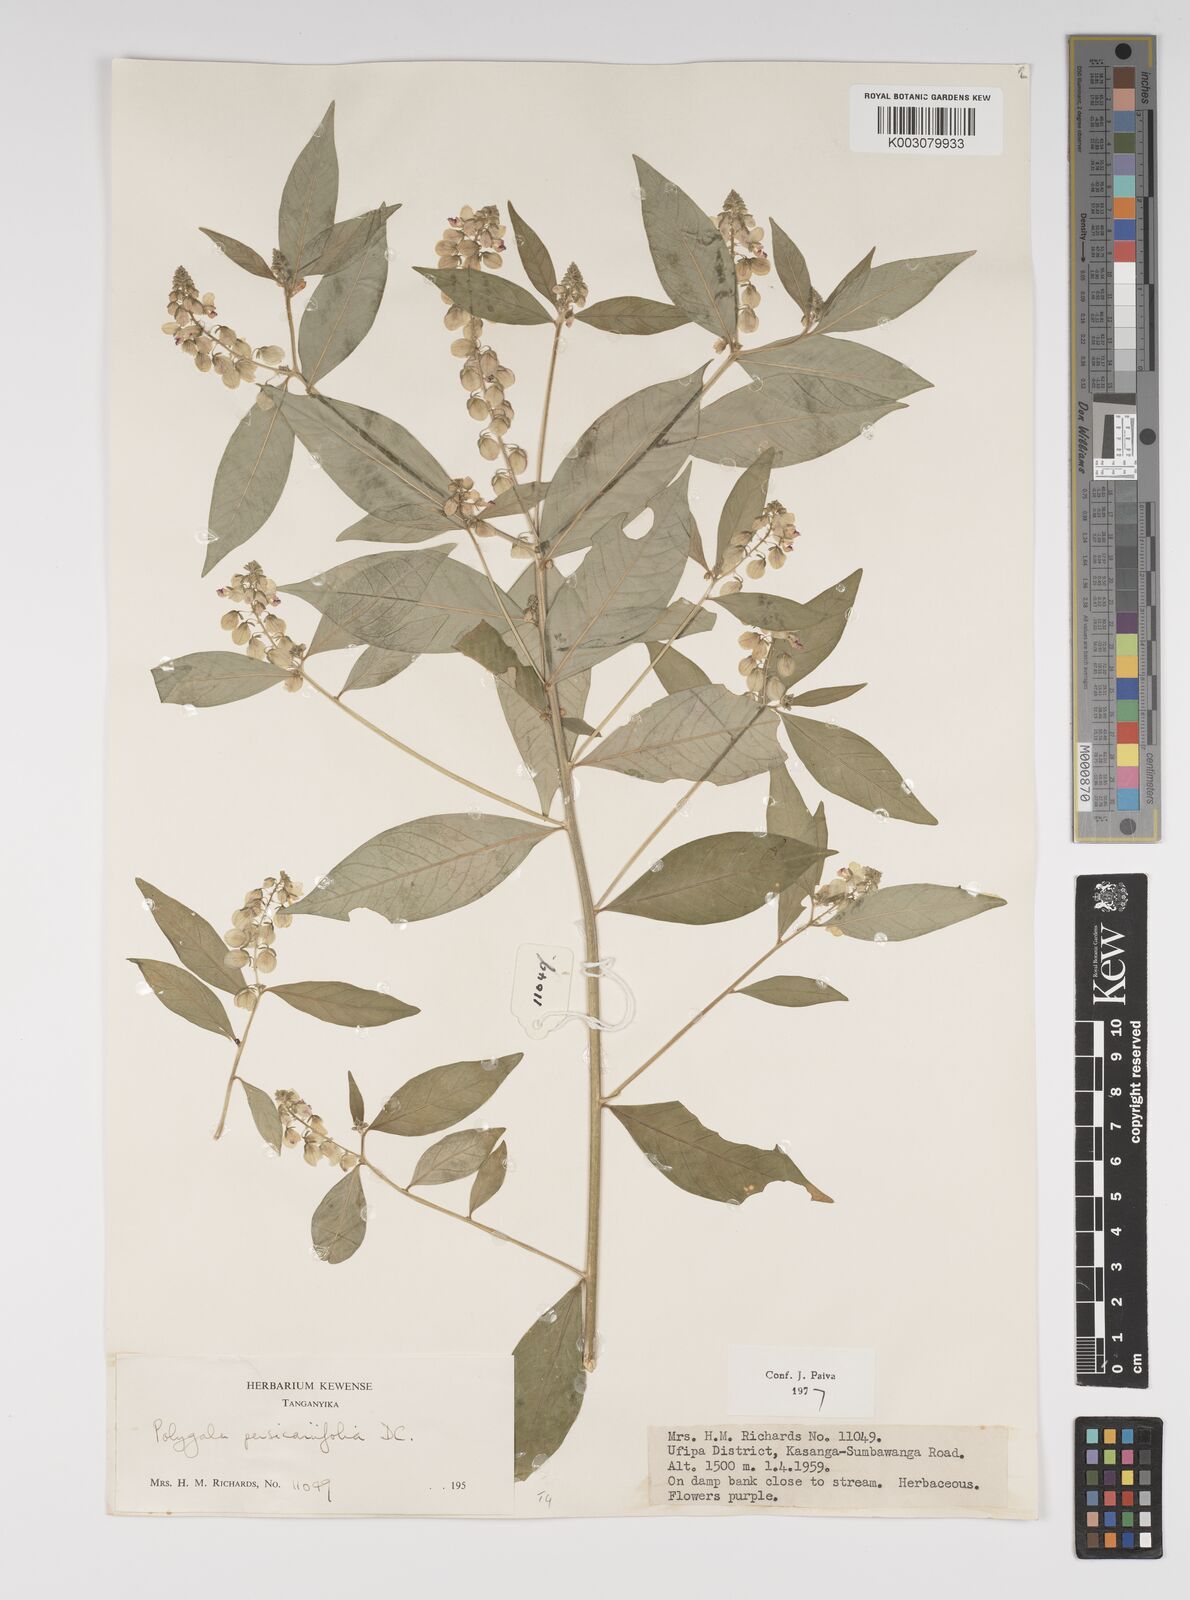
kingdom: Plantae
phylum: Tracheophyta
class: Magnoliopsida
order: Fabales
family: Polygalaceae
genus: Polygala
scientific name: Polygala persicariifolia
